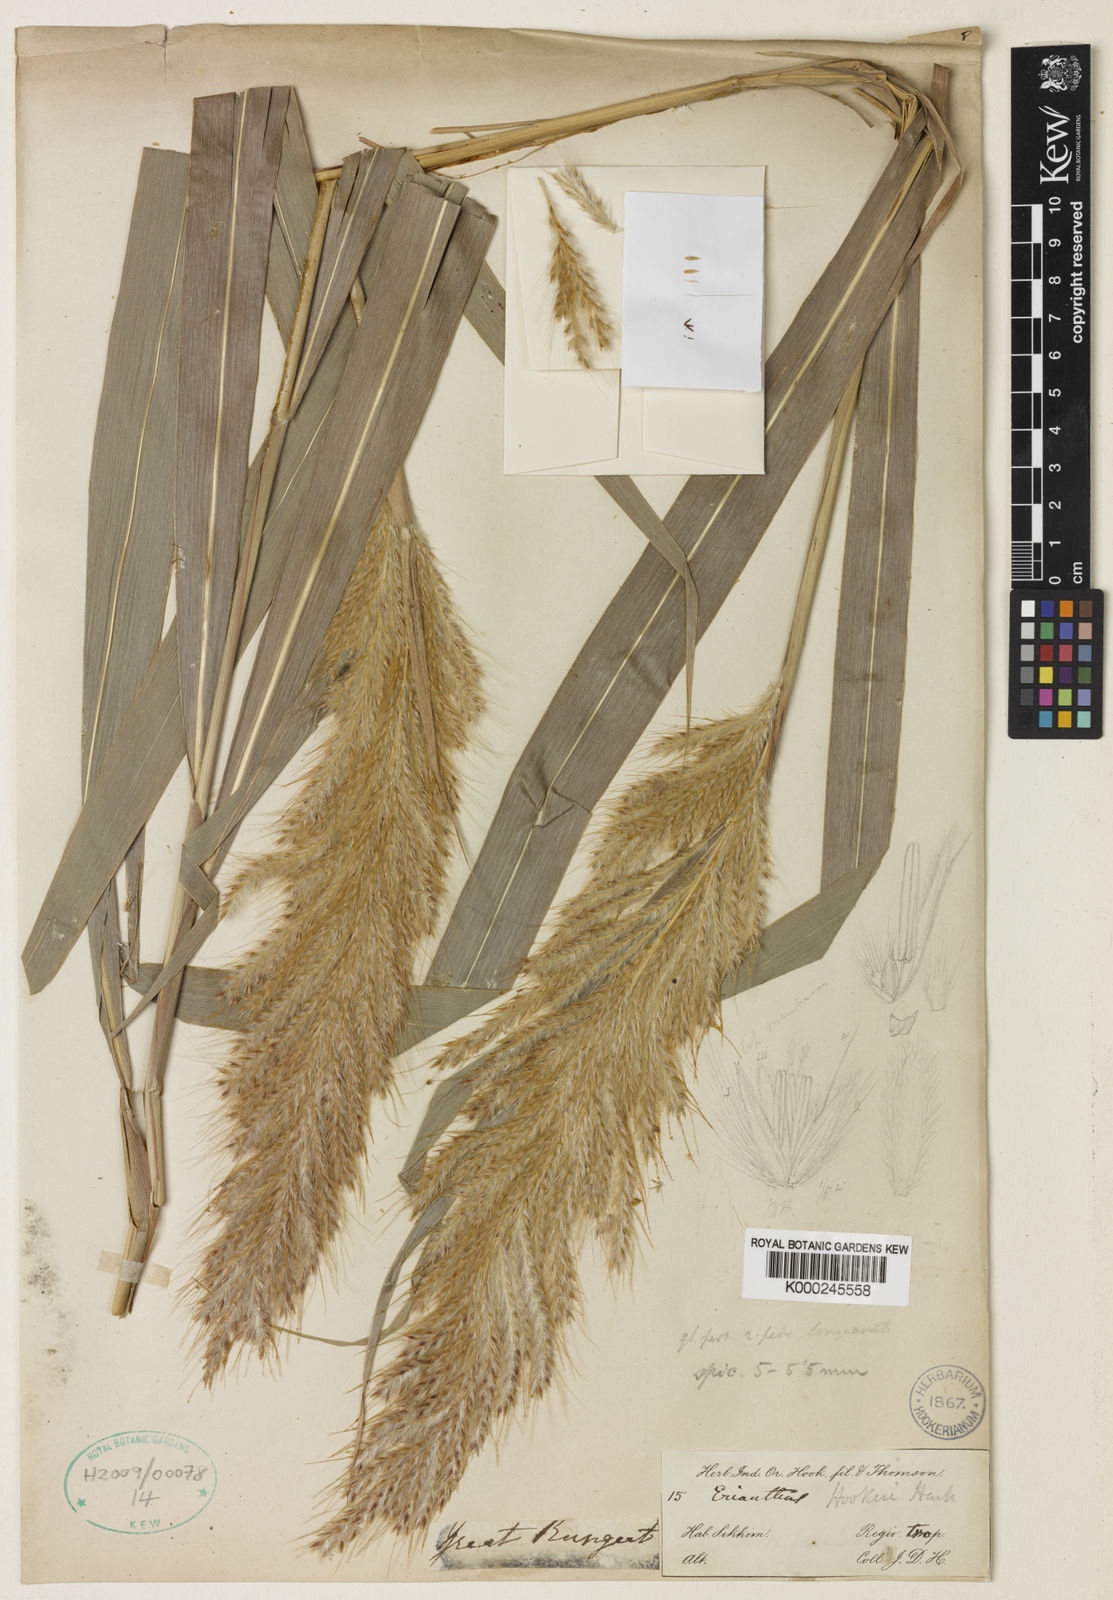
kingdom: Plantae
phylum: Tracheophyta
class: Liliopsida
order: Poales
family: Poaceae
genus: Saccharum
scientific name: Saccharum
